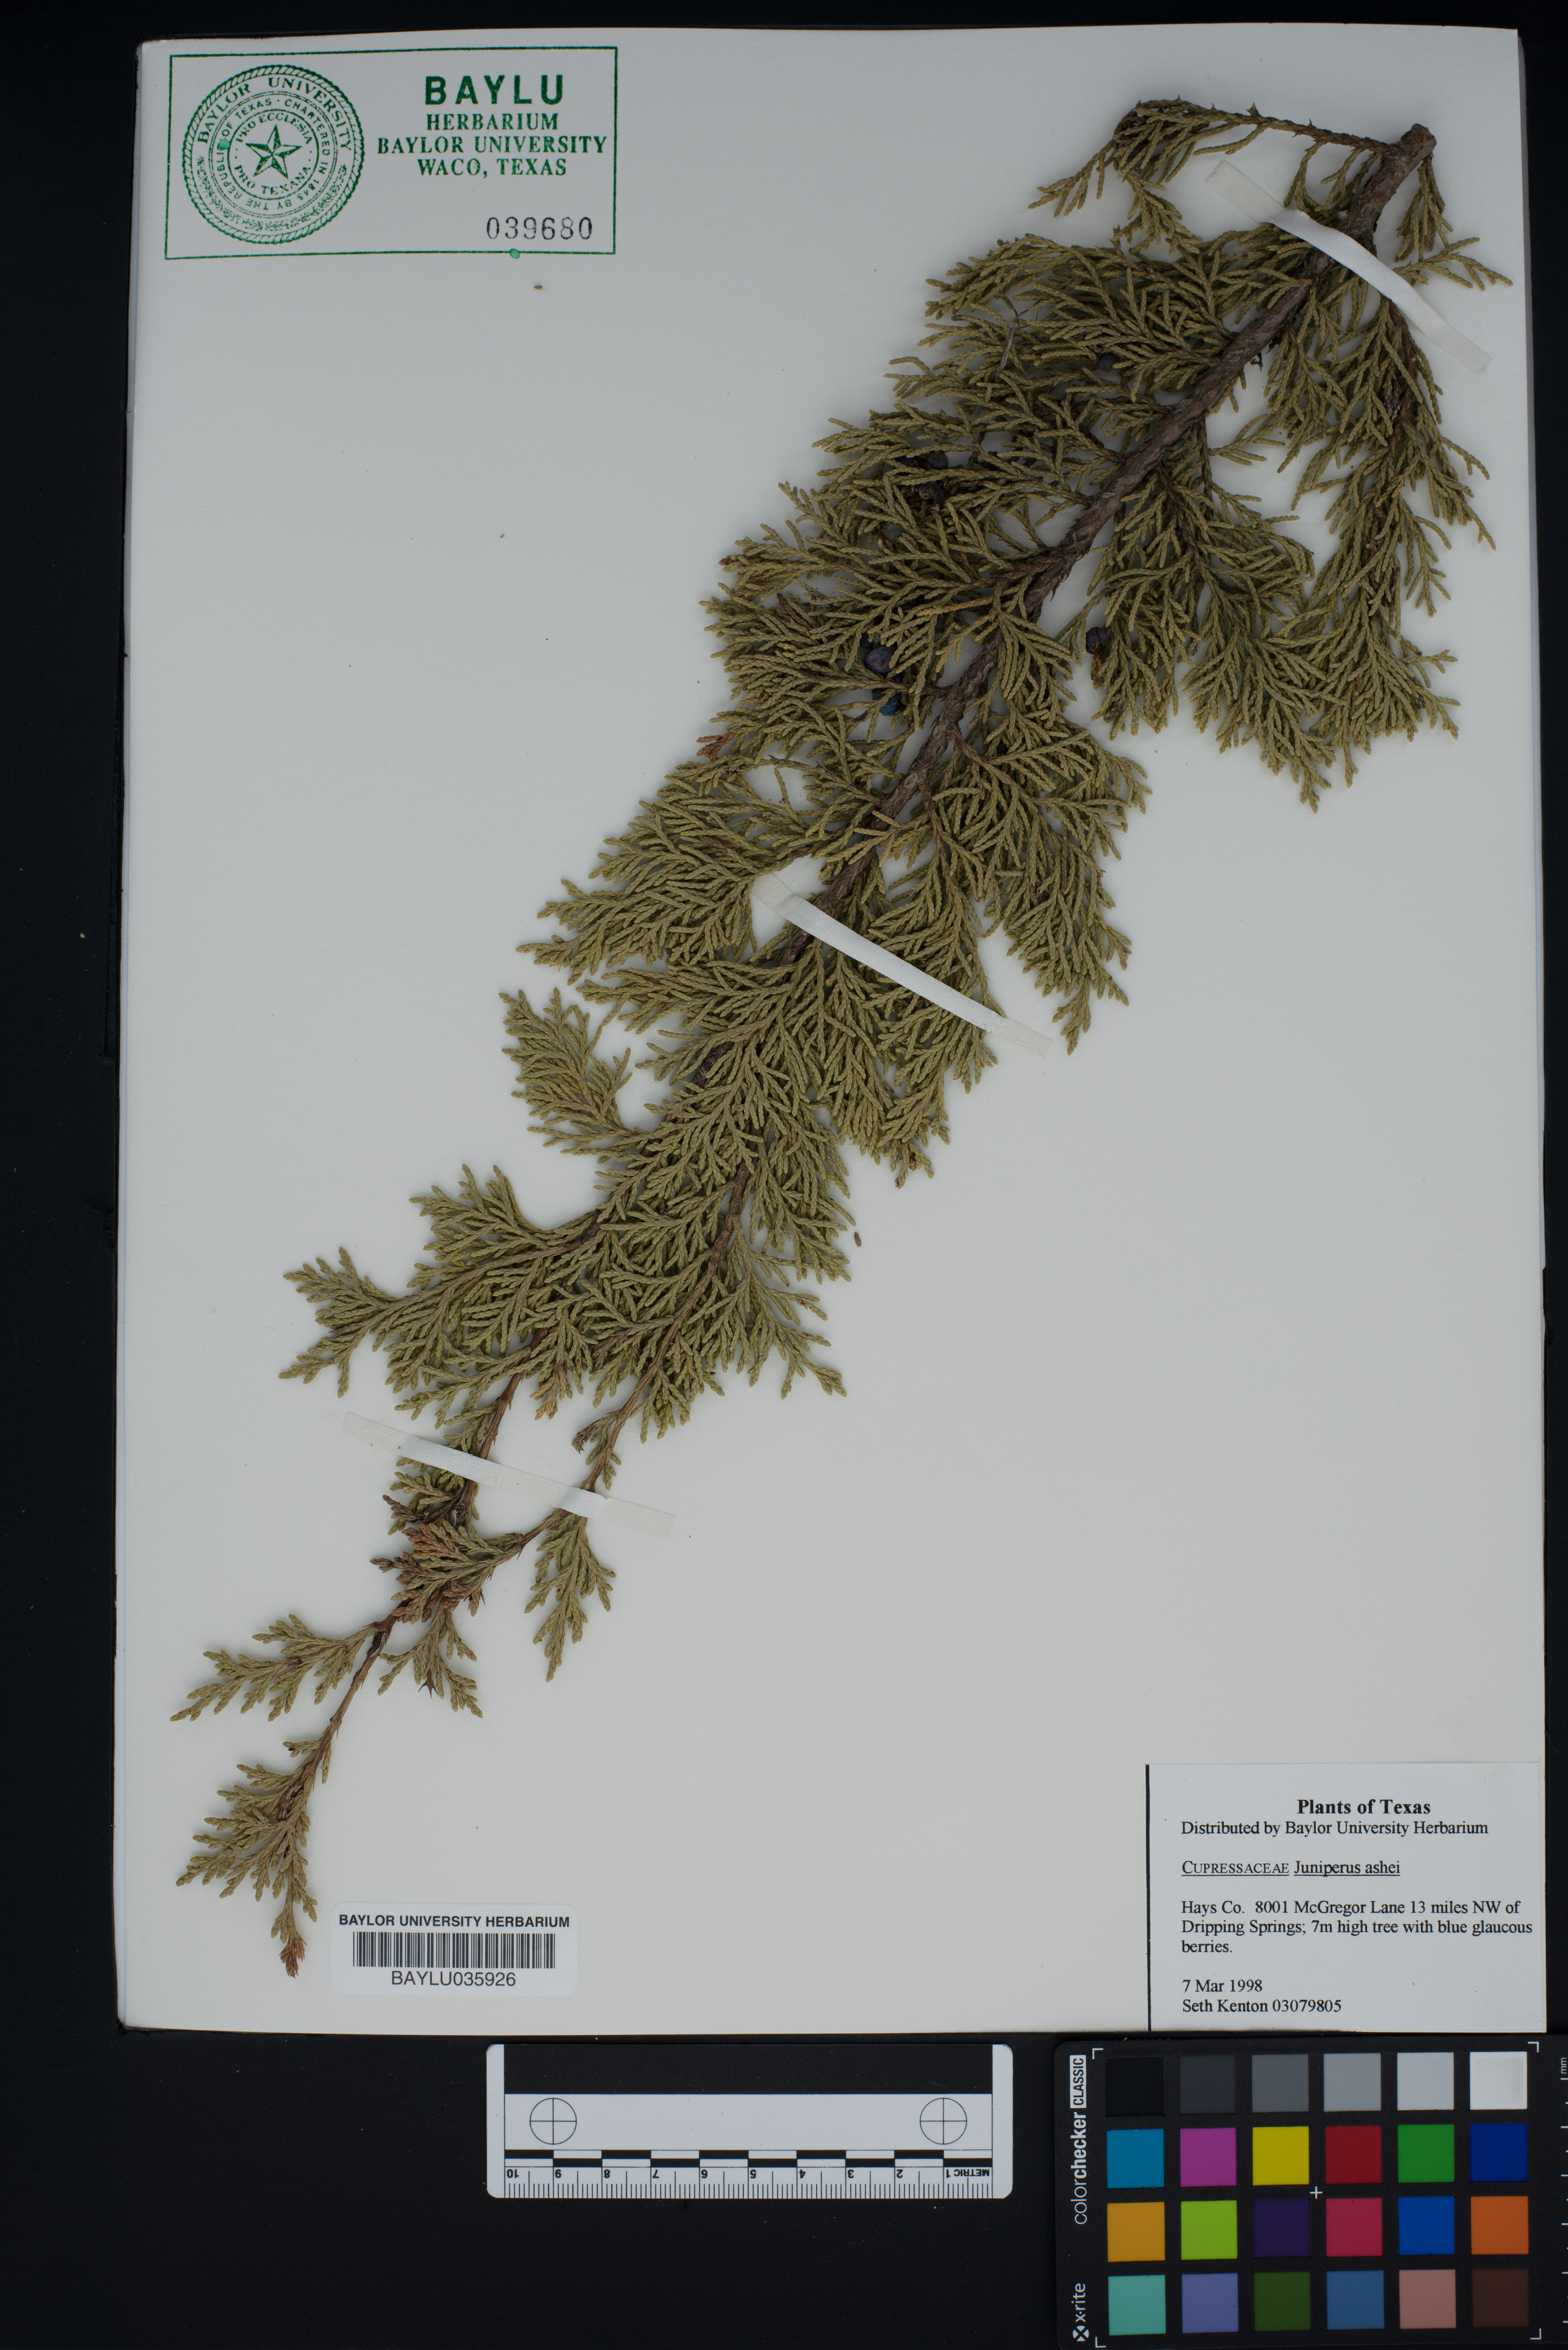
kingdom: Plantae
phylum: Tracheophyta
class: Pinopsida
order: Pinales
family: Cupressaceae
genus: Juniperus
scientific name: Juniperus ashei
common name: Mexican juniper
